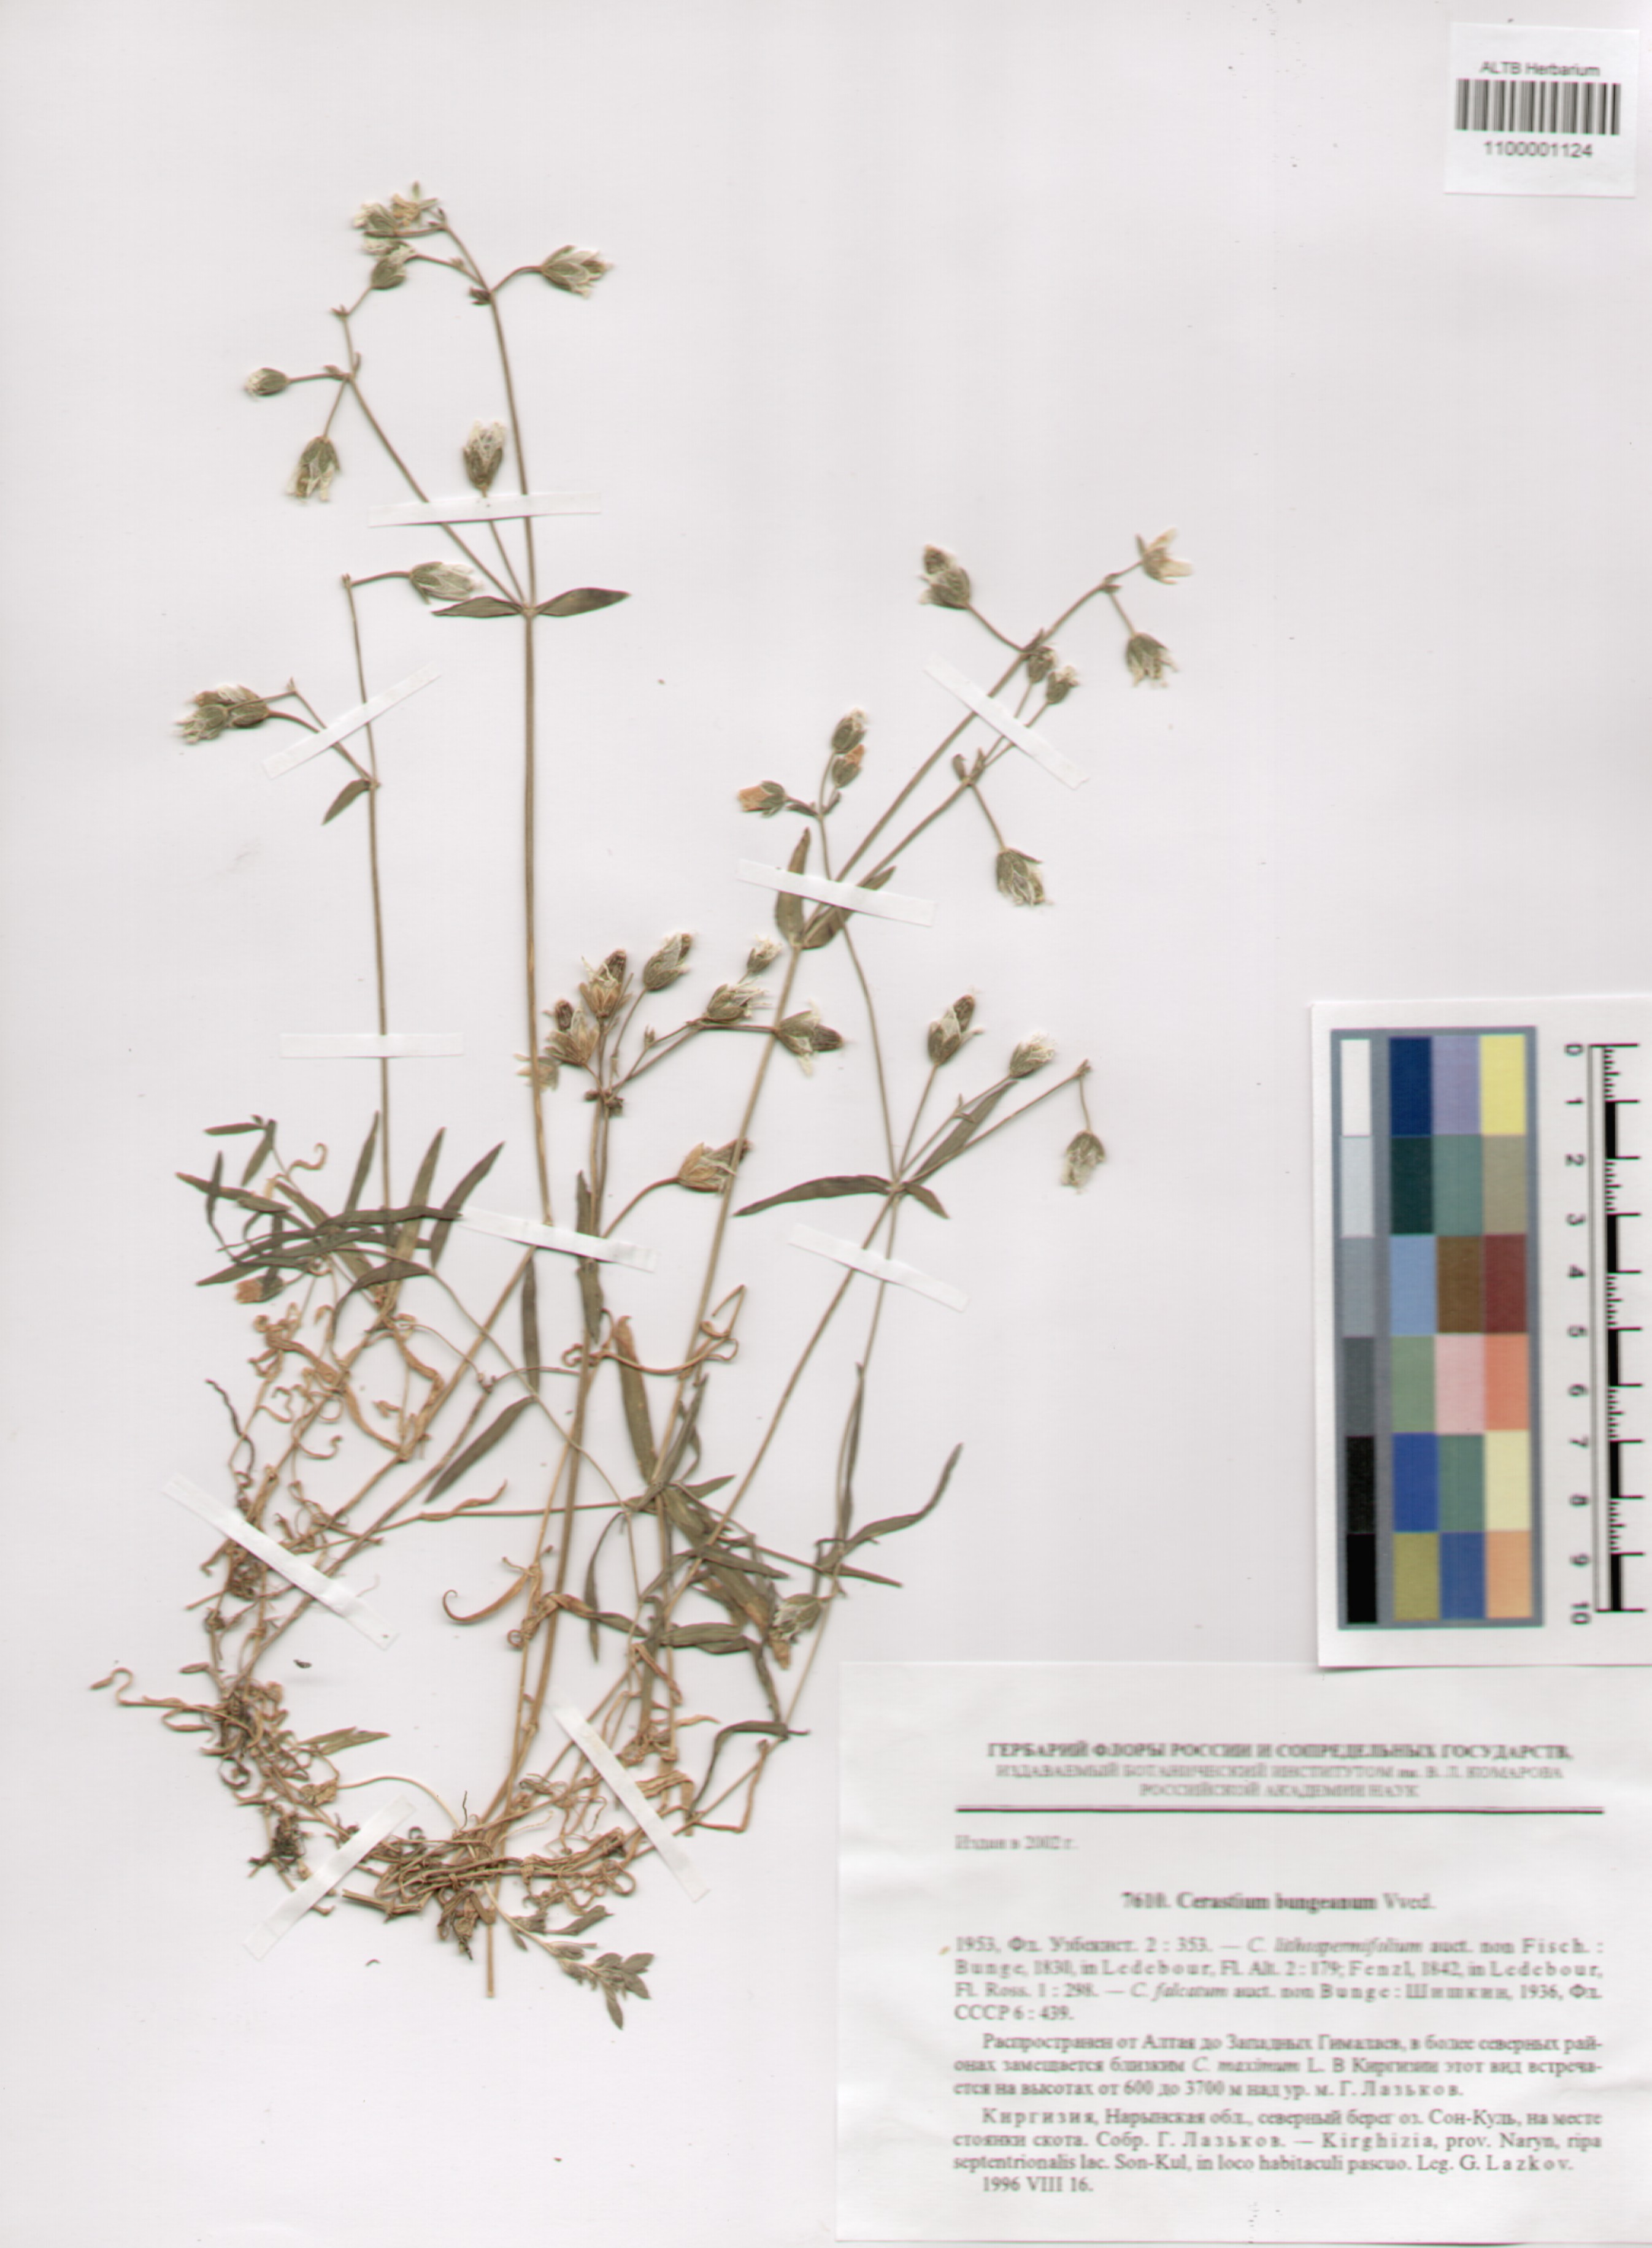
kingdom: Plantae
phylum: Tracheophyta
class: Magnoliopsida
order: Caryophyllales
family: Caryophyllaceae
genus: Dichodon
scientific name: Dichodon maximum
